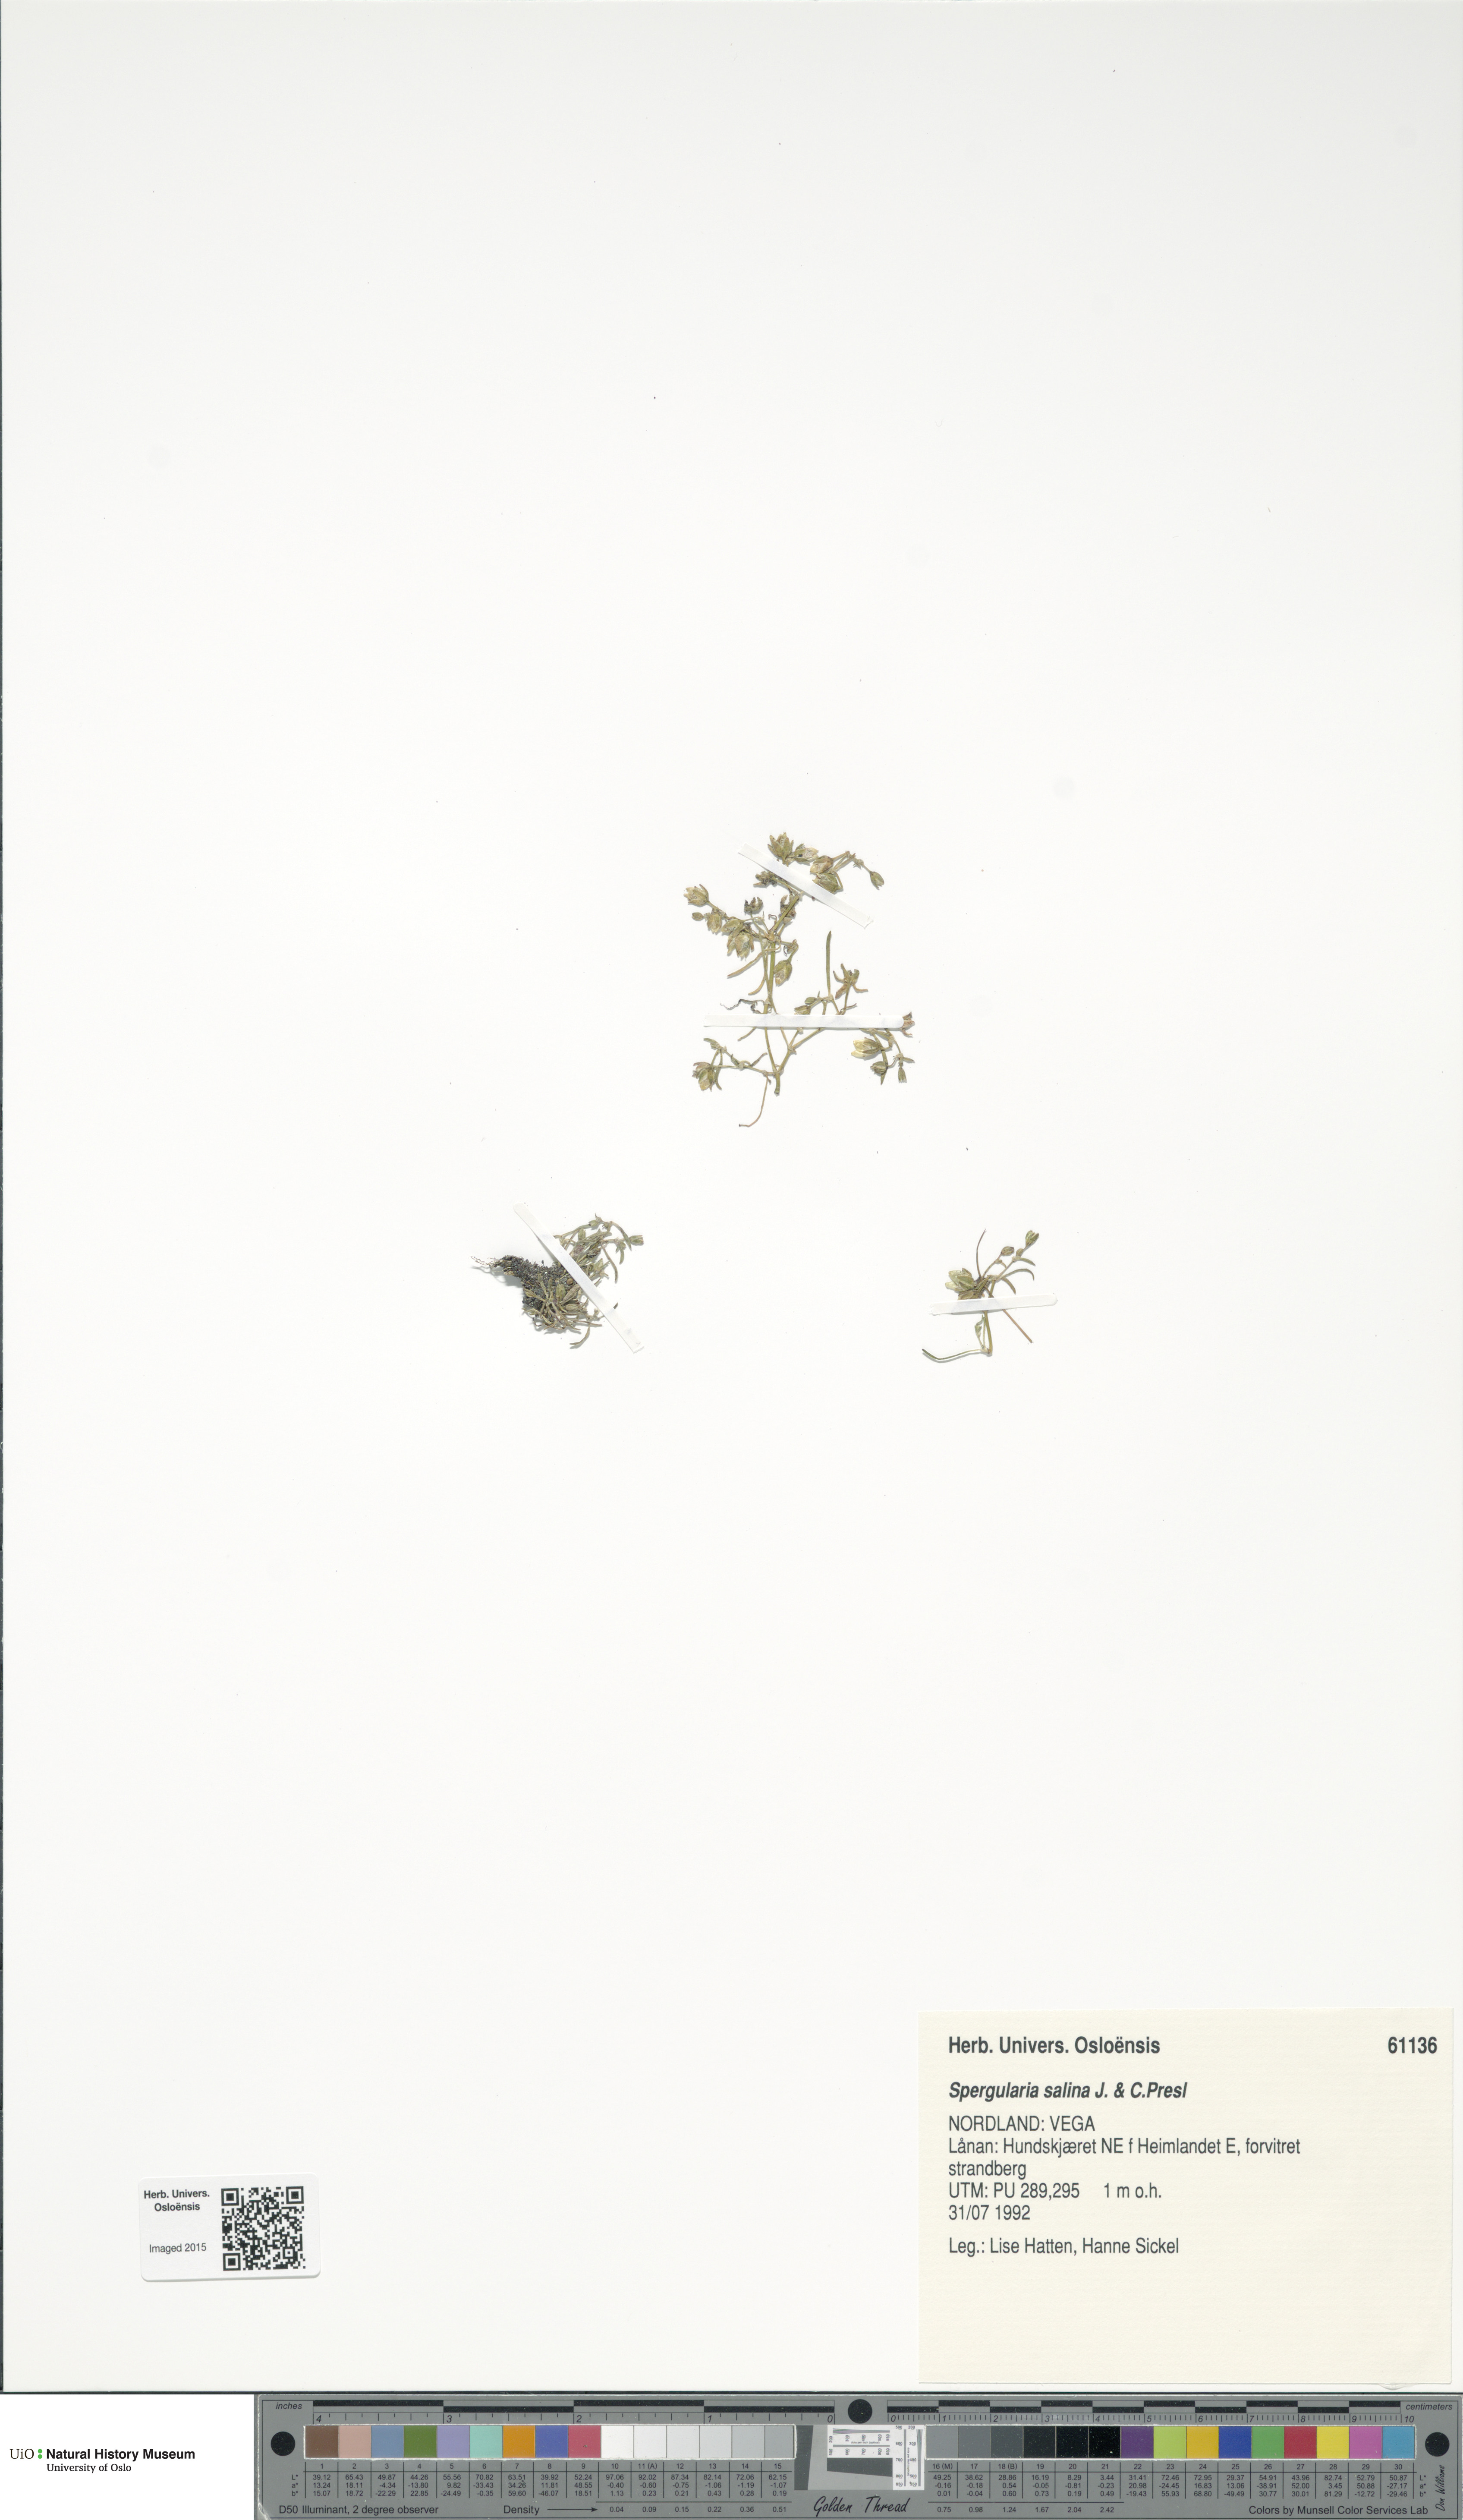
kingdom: Plantae
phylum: Tracheophyta
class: Magnoliopsida
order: Caryophyllales
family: Caryophyllaceae
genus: Spergularia
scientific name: Spergularia marina
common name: Lesser sea-spurrey
